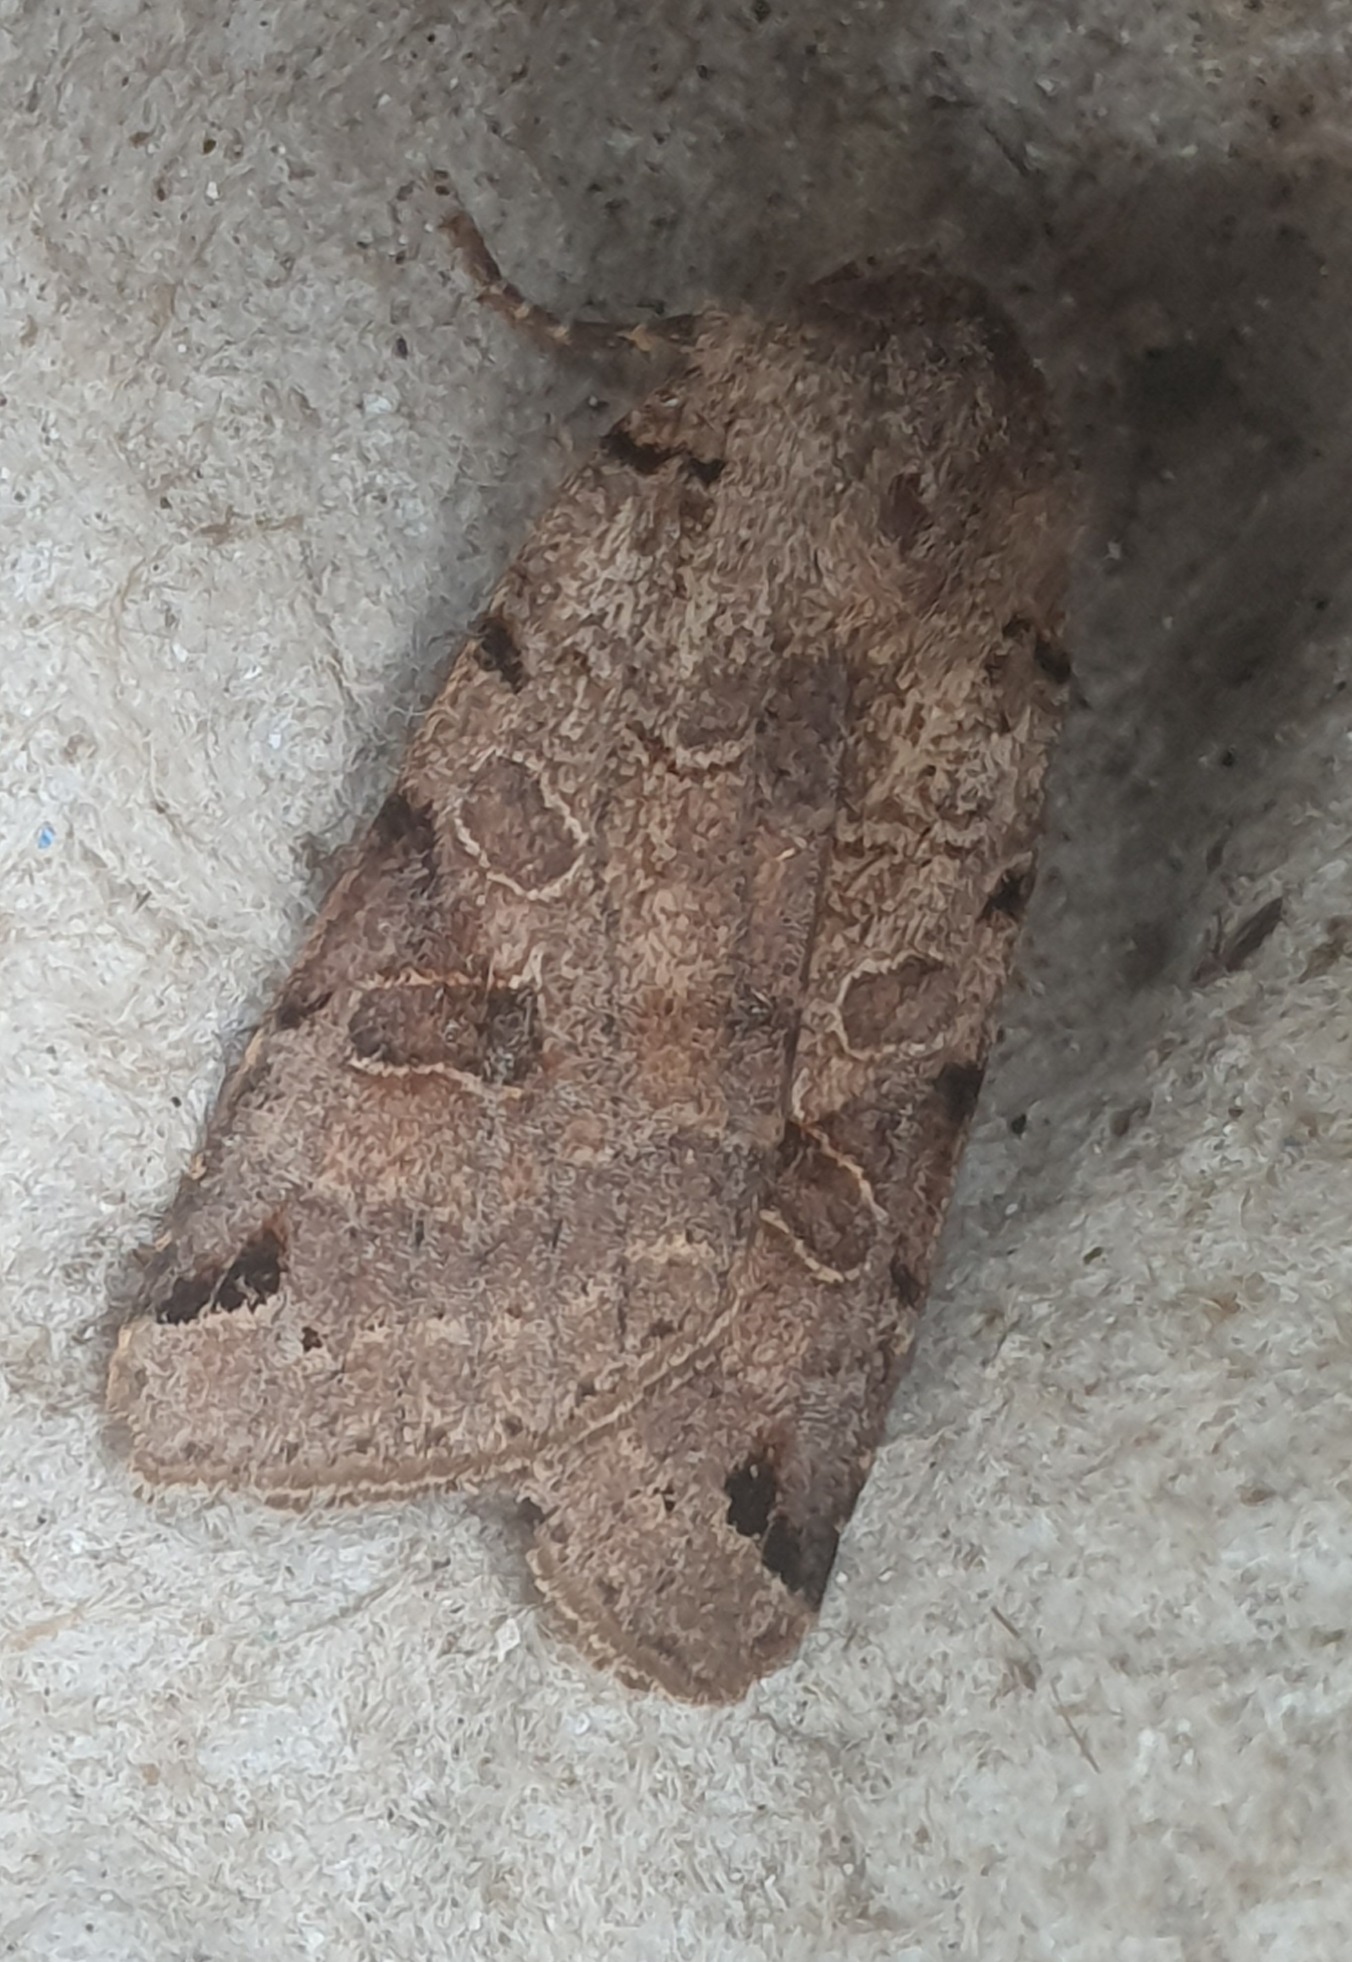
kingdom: Animalia
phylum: Arthropoda
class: Insecta
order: Lepidoptera
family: Noctuidae
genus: Agrochola
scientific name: Agrochola litura
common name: Kantplettet jordfarveugle
